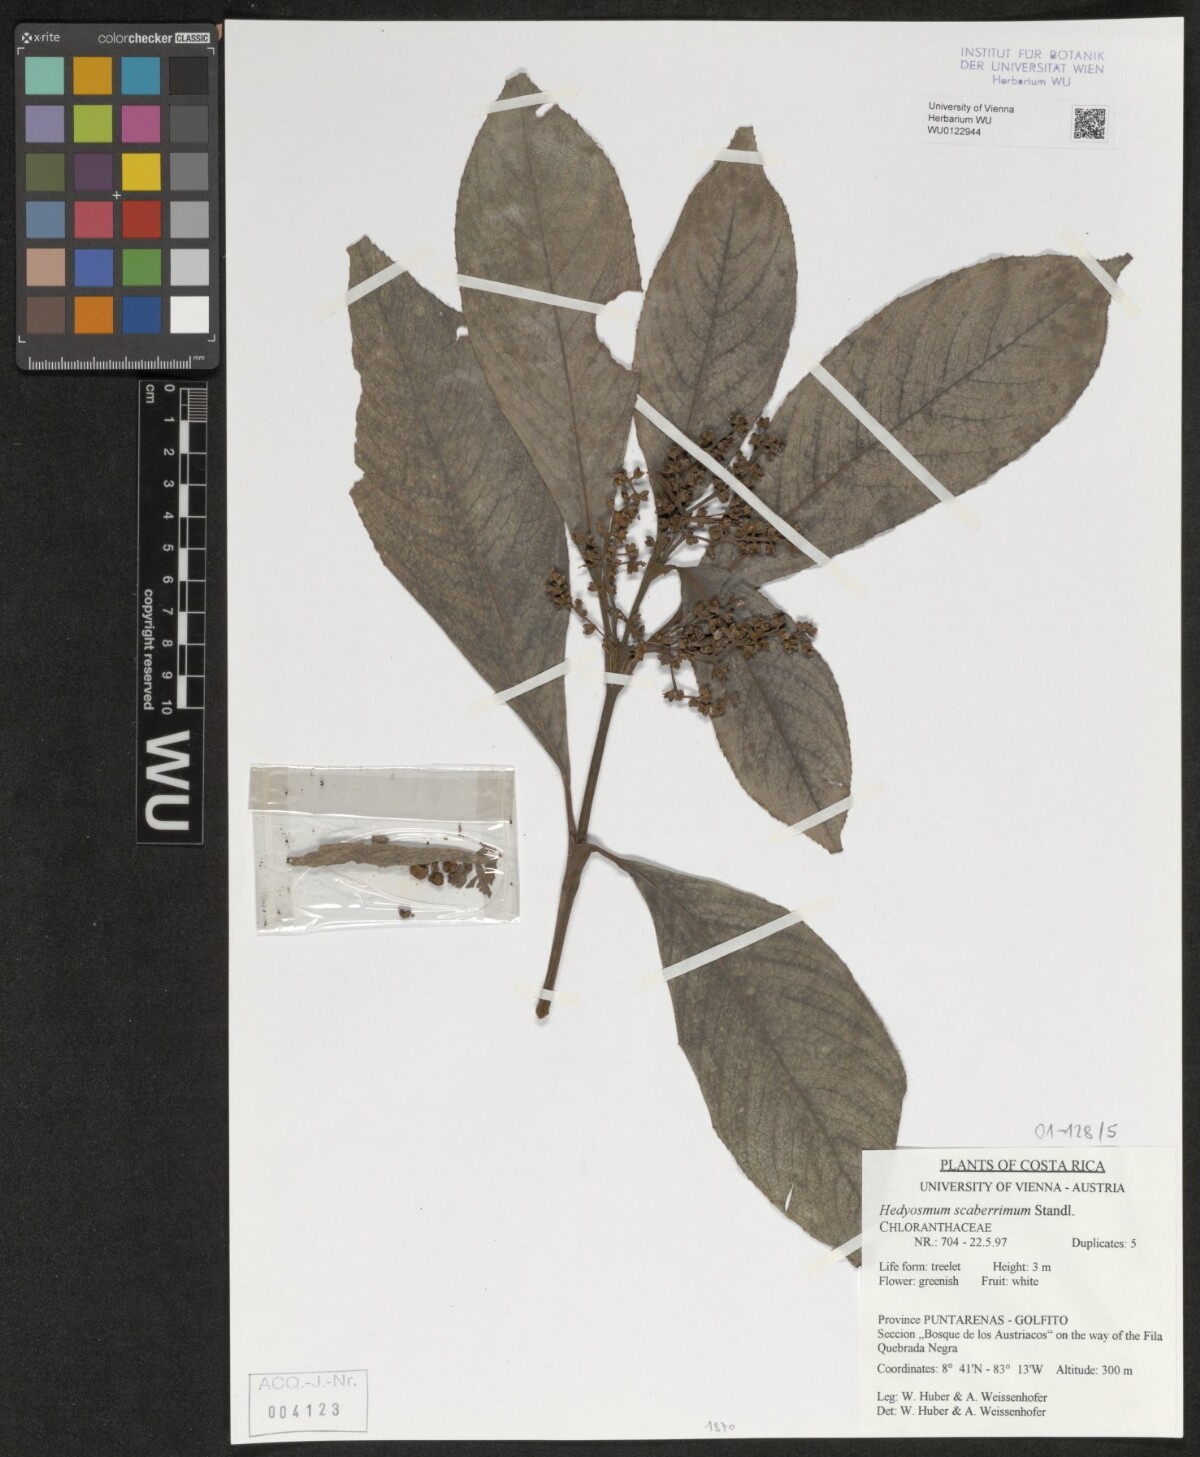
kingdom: Plantae
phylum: Tracheophyta
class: Magnoliopsida
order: Chloranthales
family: Chloranthaceae
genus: Hedyosmum
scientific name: Hedyosmum scaberrimum
